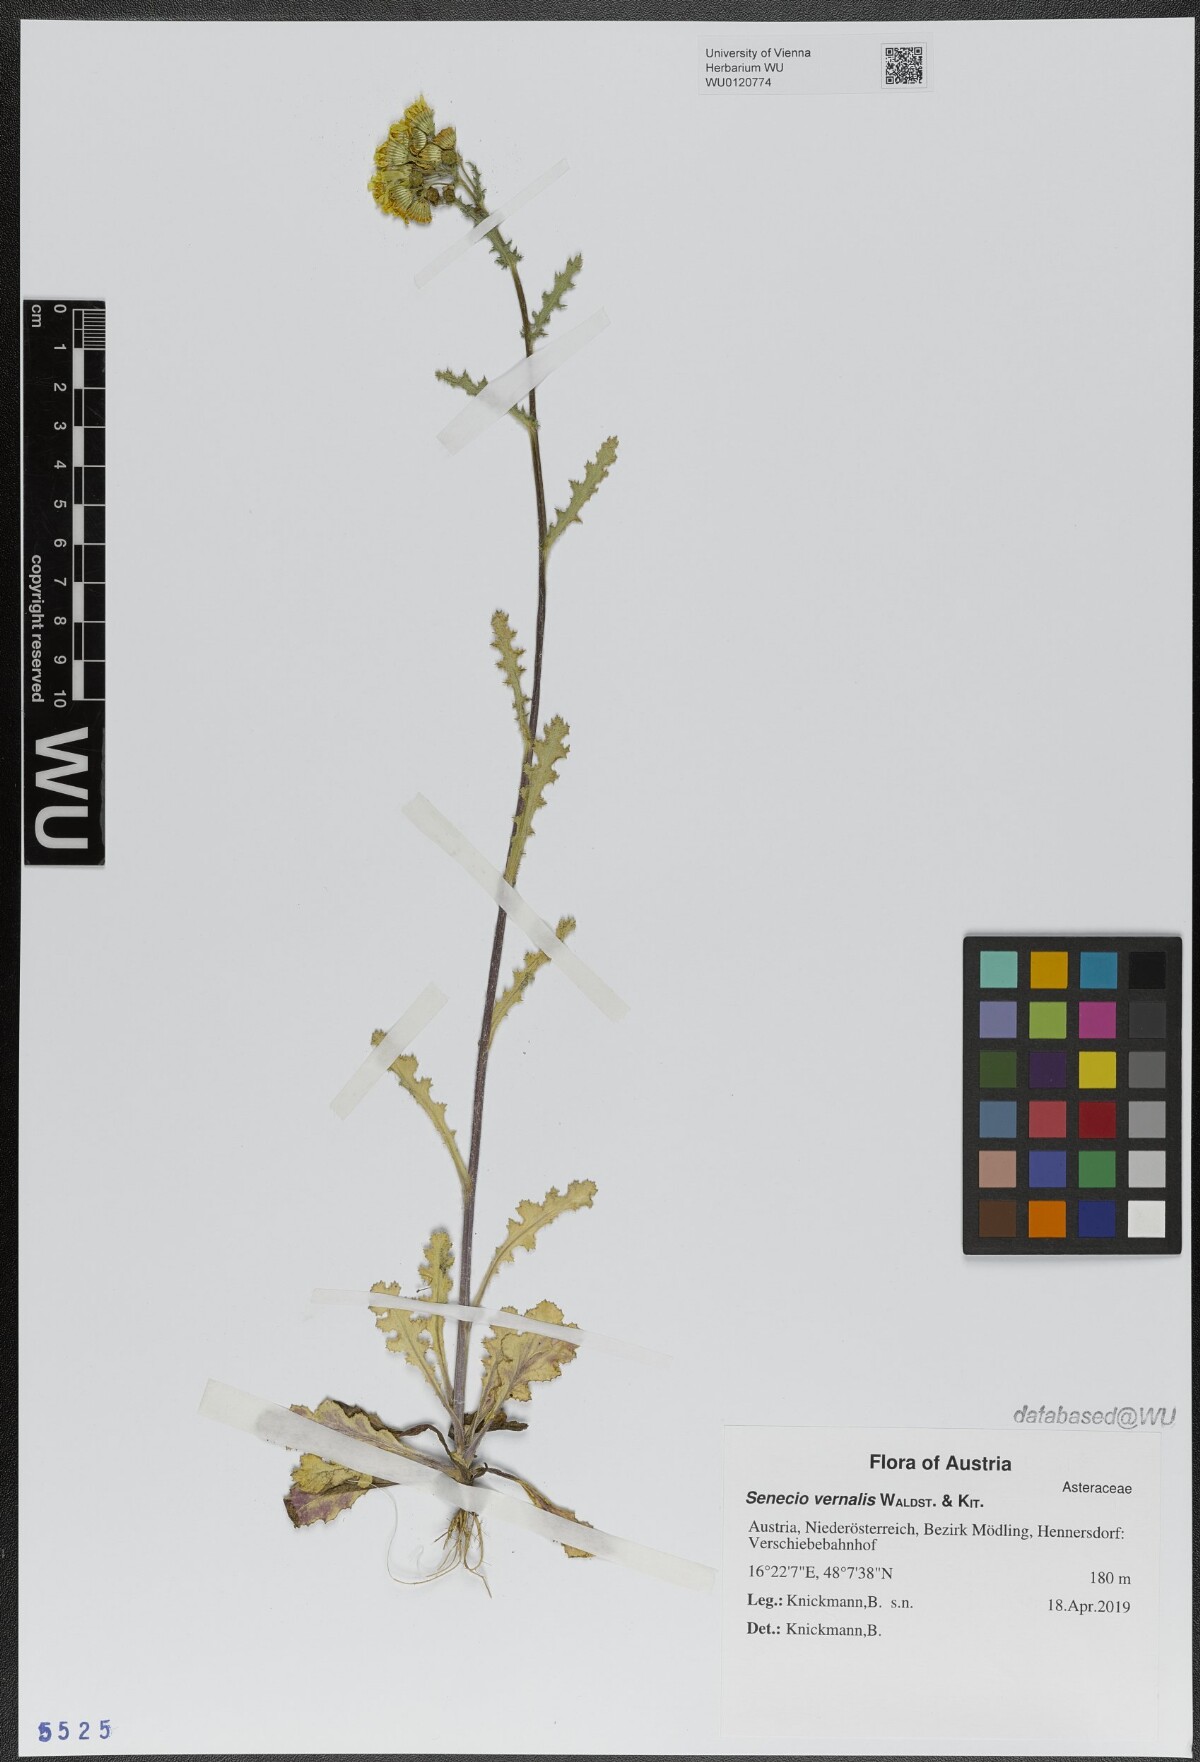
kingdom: Plantae
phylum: Tracheophyta
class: Magnoliopsida
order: Asterales
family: Asteraceae
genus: Senecio
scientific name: Senecio vernalis
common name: Eastern groundsel
